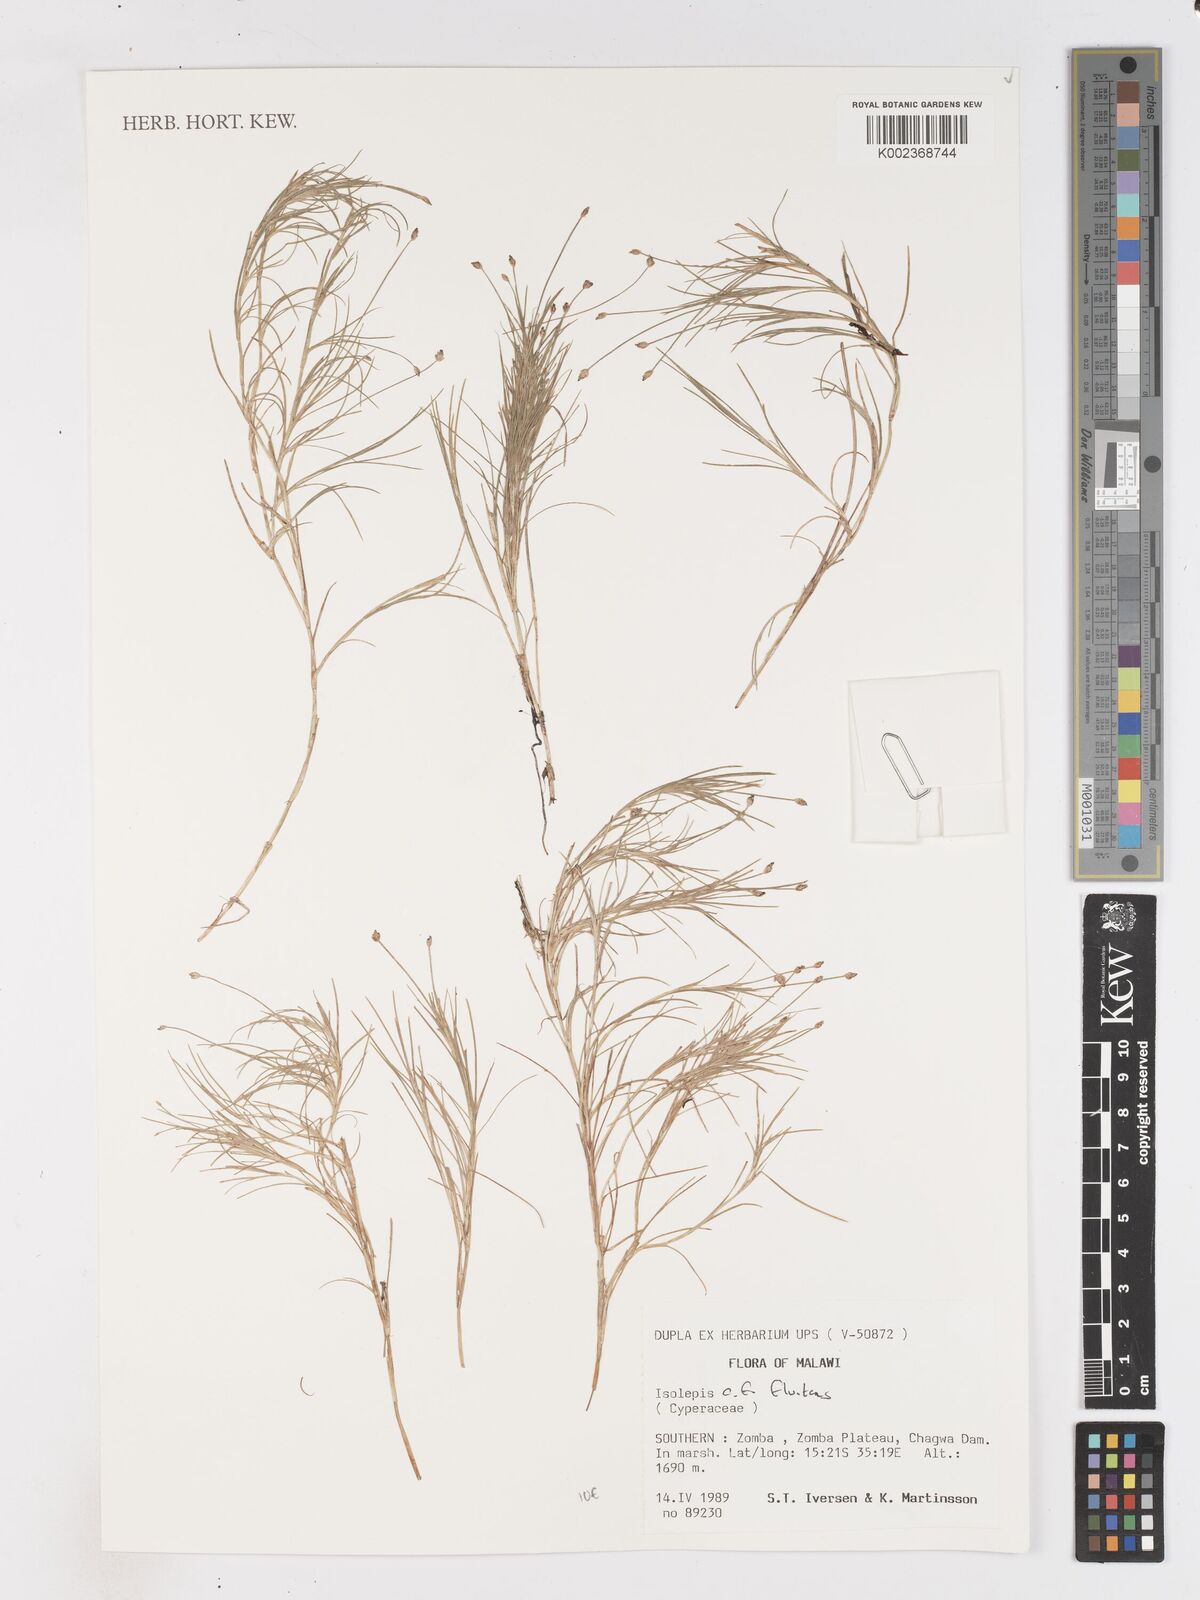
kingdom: Plantae
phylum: Tracheophyta
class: Liliopsida
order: Poales
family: Cyperaceae
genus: Isolepis
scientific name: Isolepis fluitans
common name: Floating club-rush
